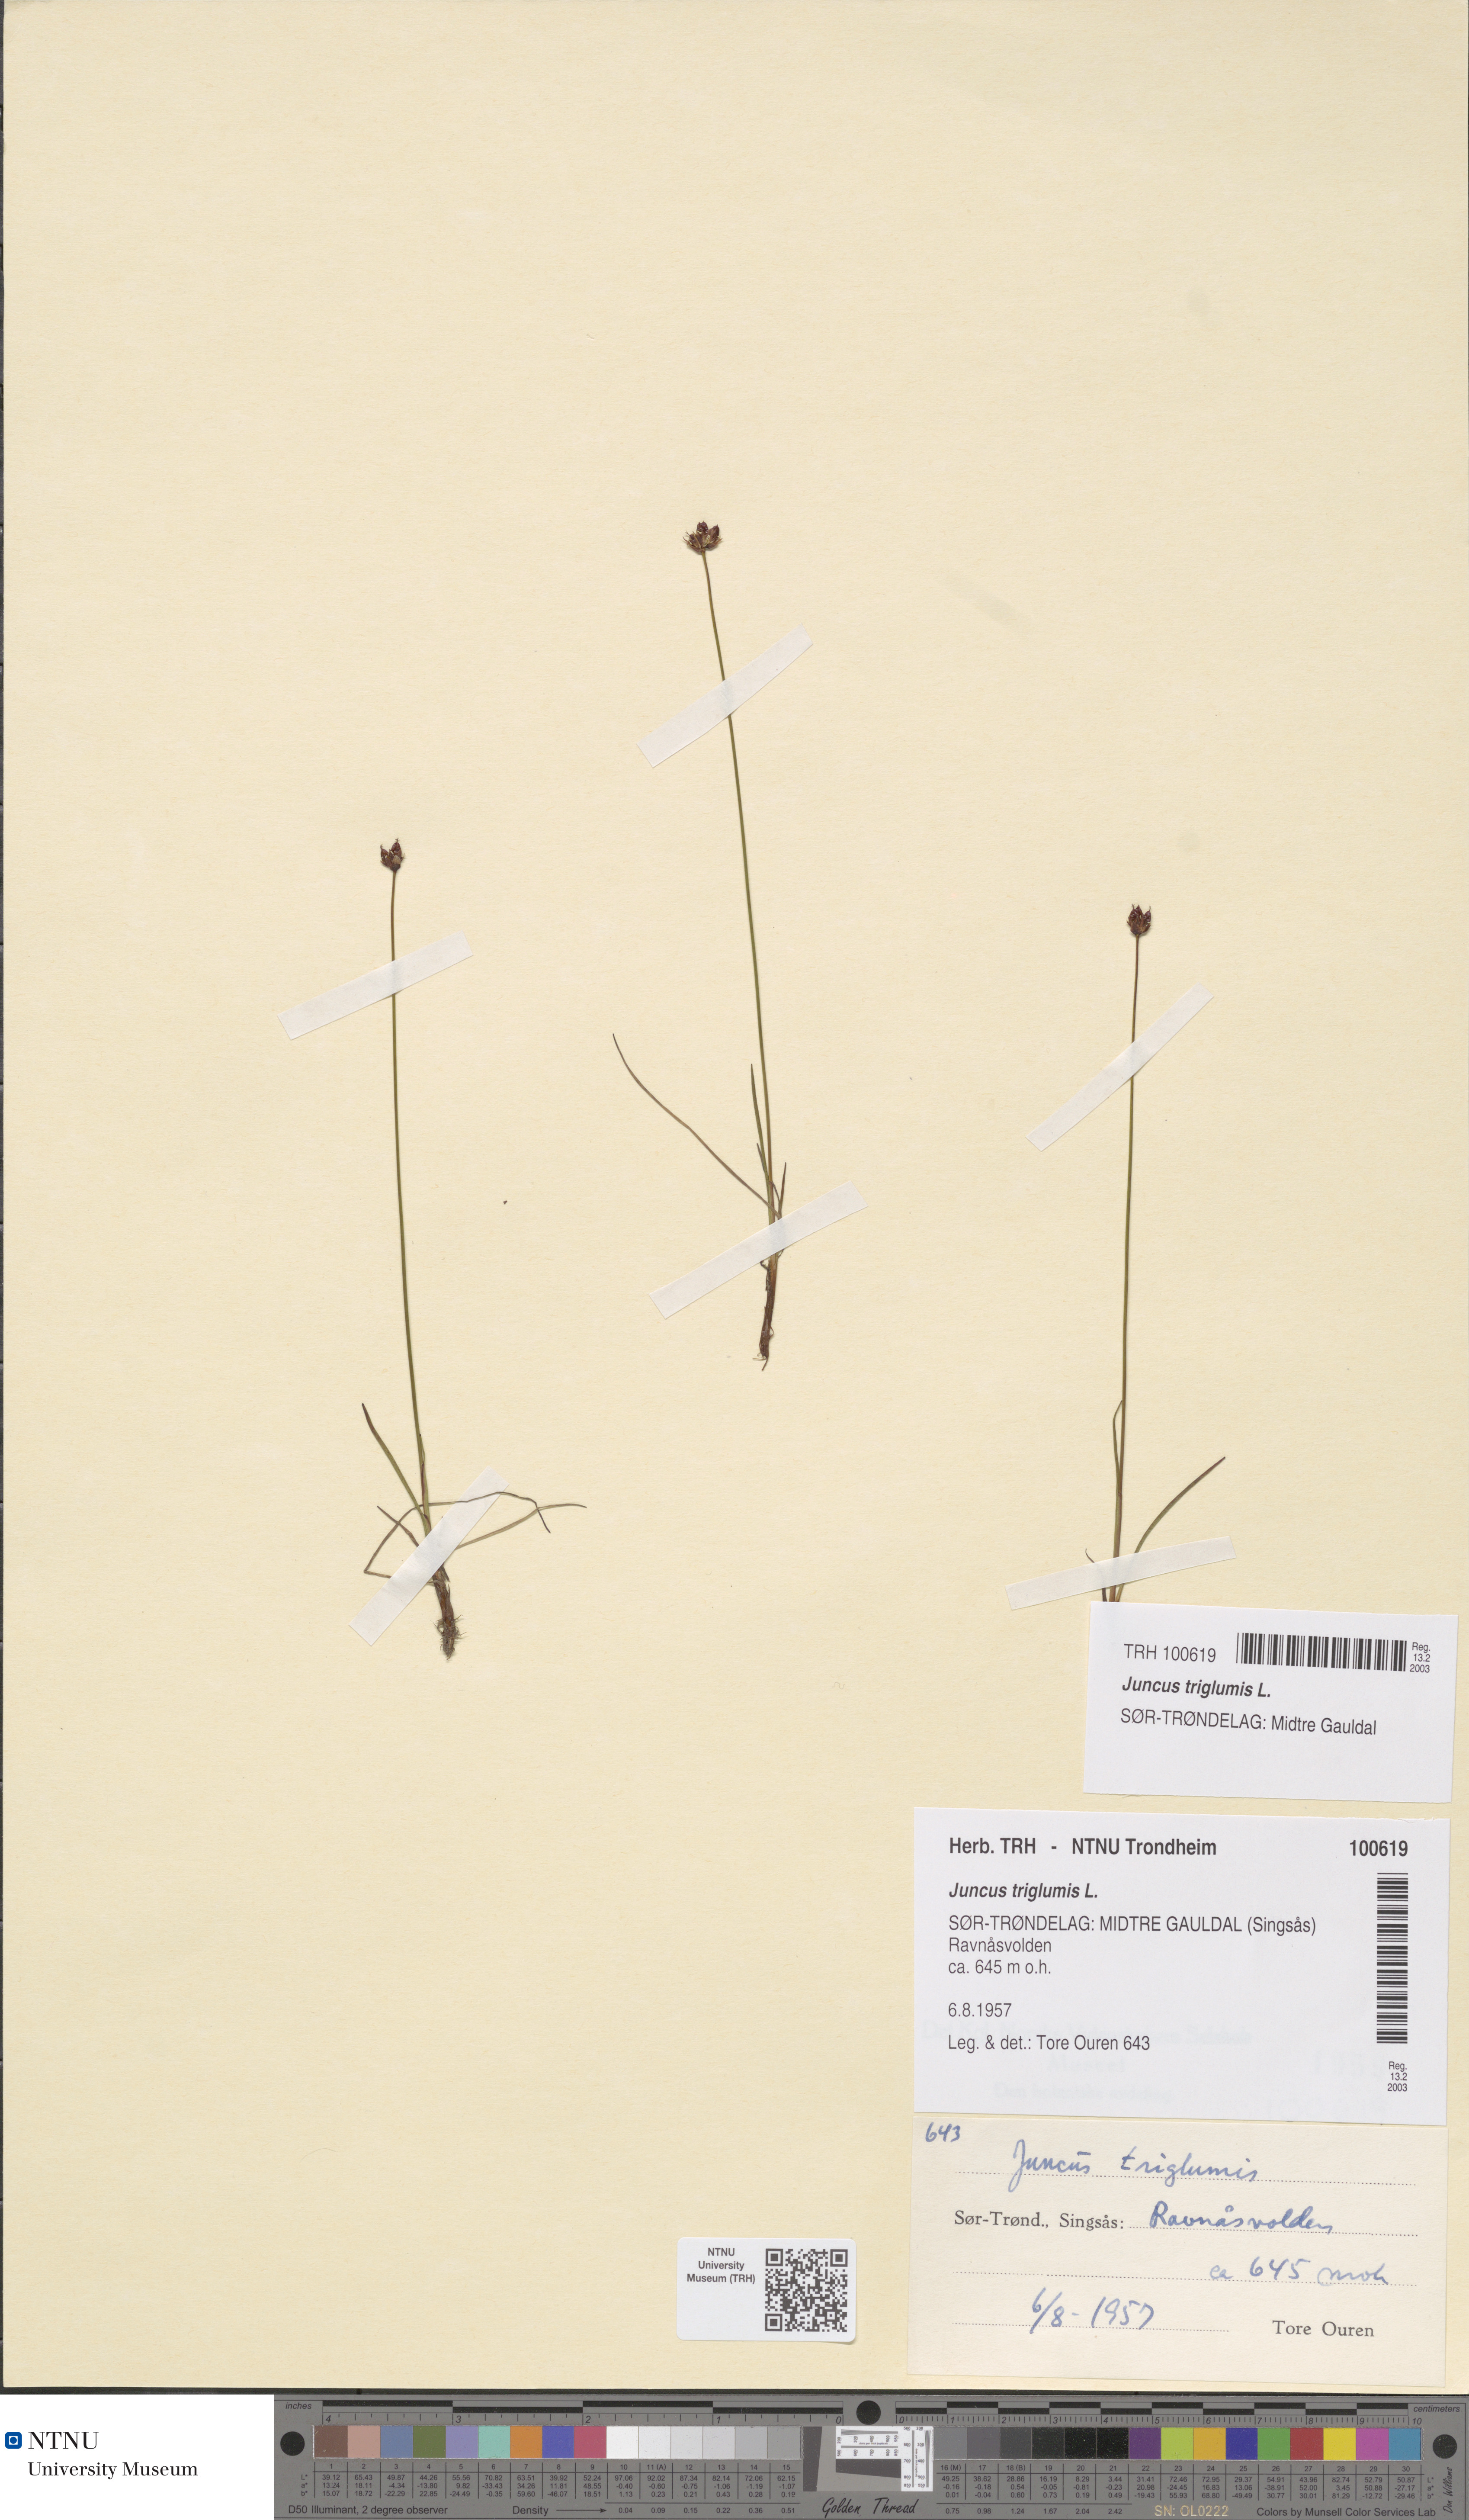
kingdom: Plantae
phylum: Tracheophyta
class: Liliopsida
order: Poales
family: Juncaceae
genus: Juncus
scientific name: Juncus triglumis
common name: Three-flowered rush
